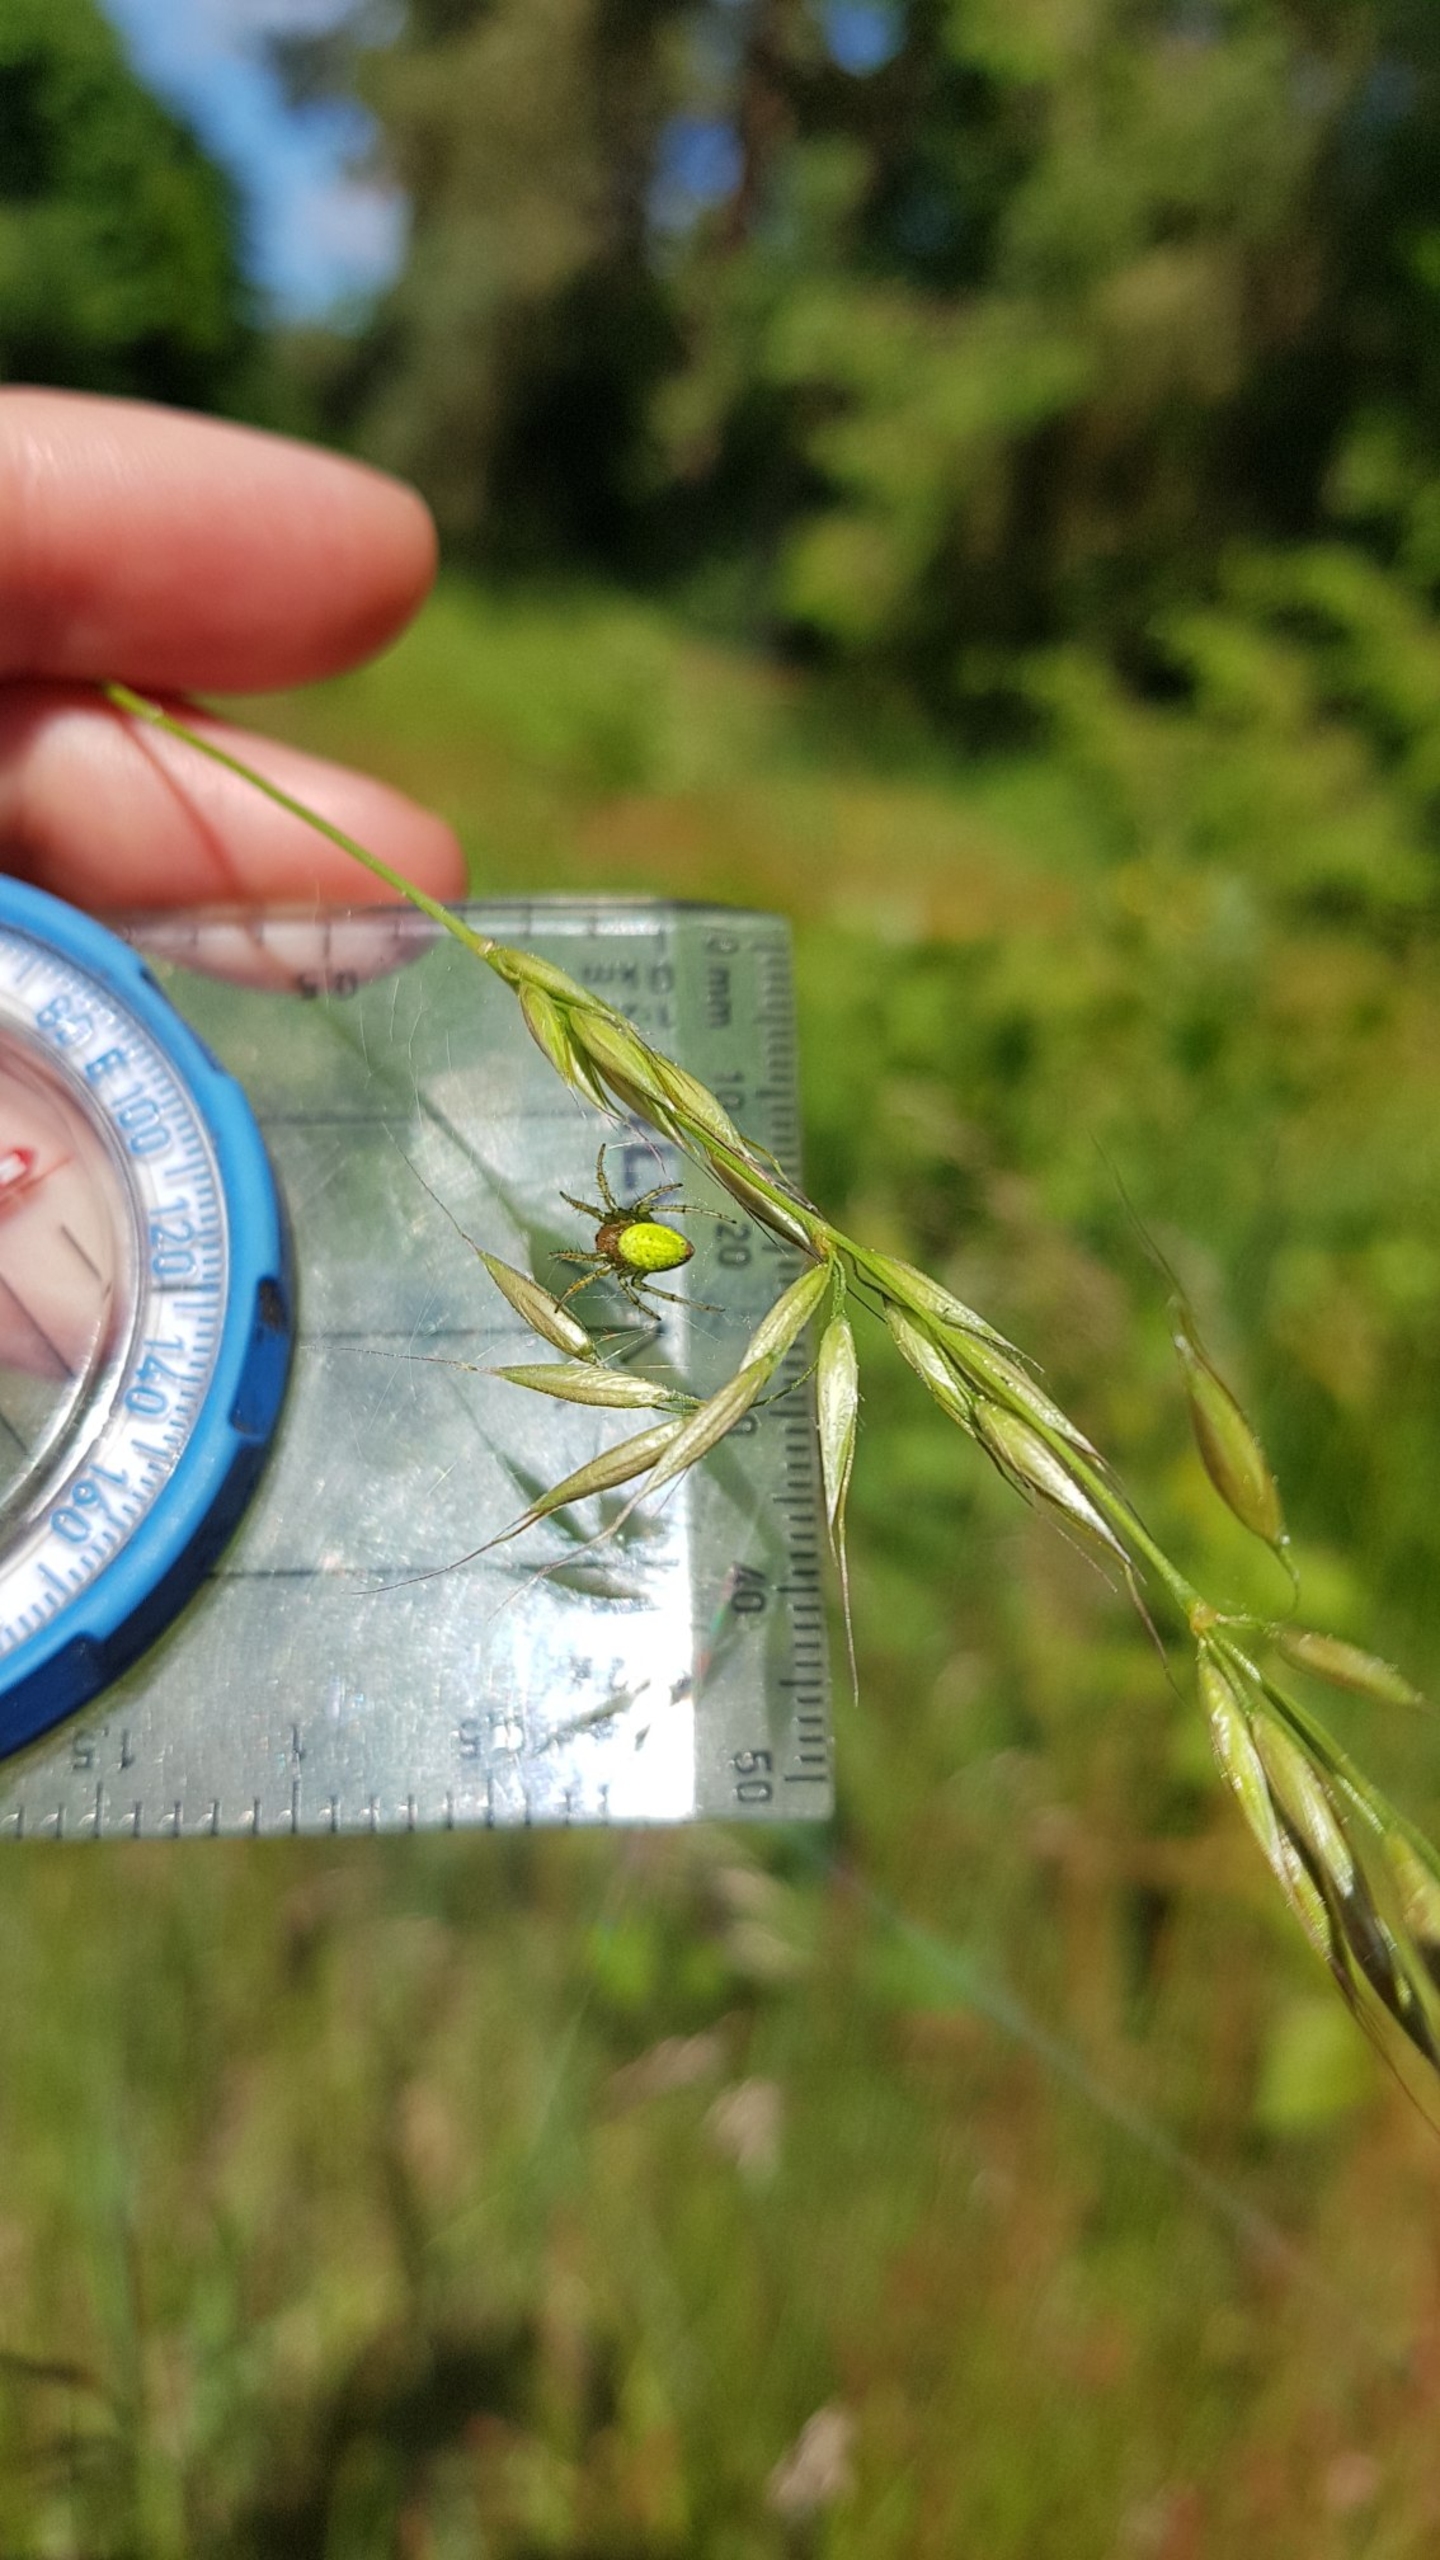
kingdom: Animalia
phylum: Arthropoda
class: Arachnida
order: Araneae
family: Araneidae
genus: Araniella
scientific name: Araniella
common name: Agurkeedderkopslægten
